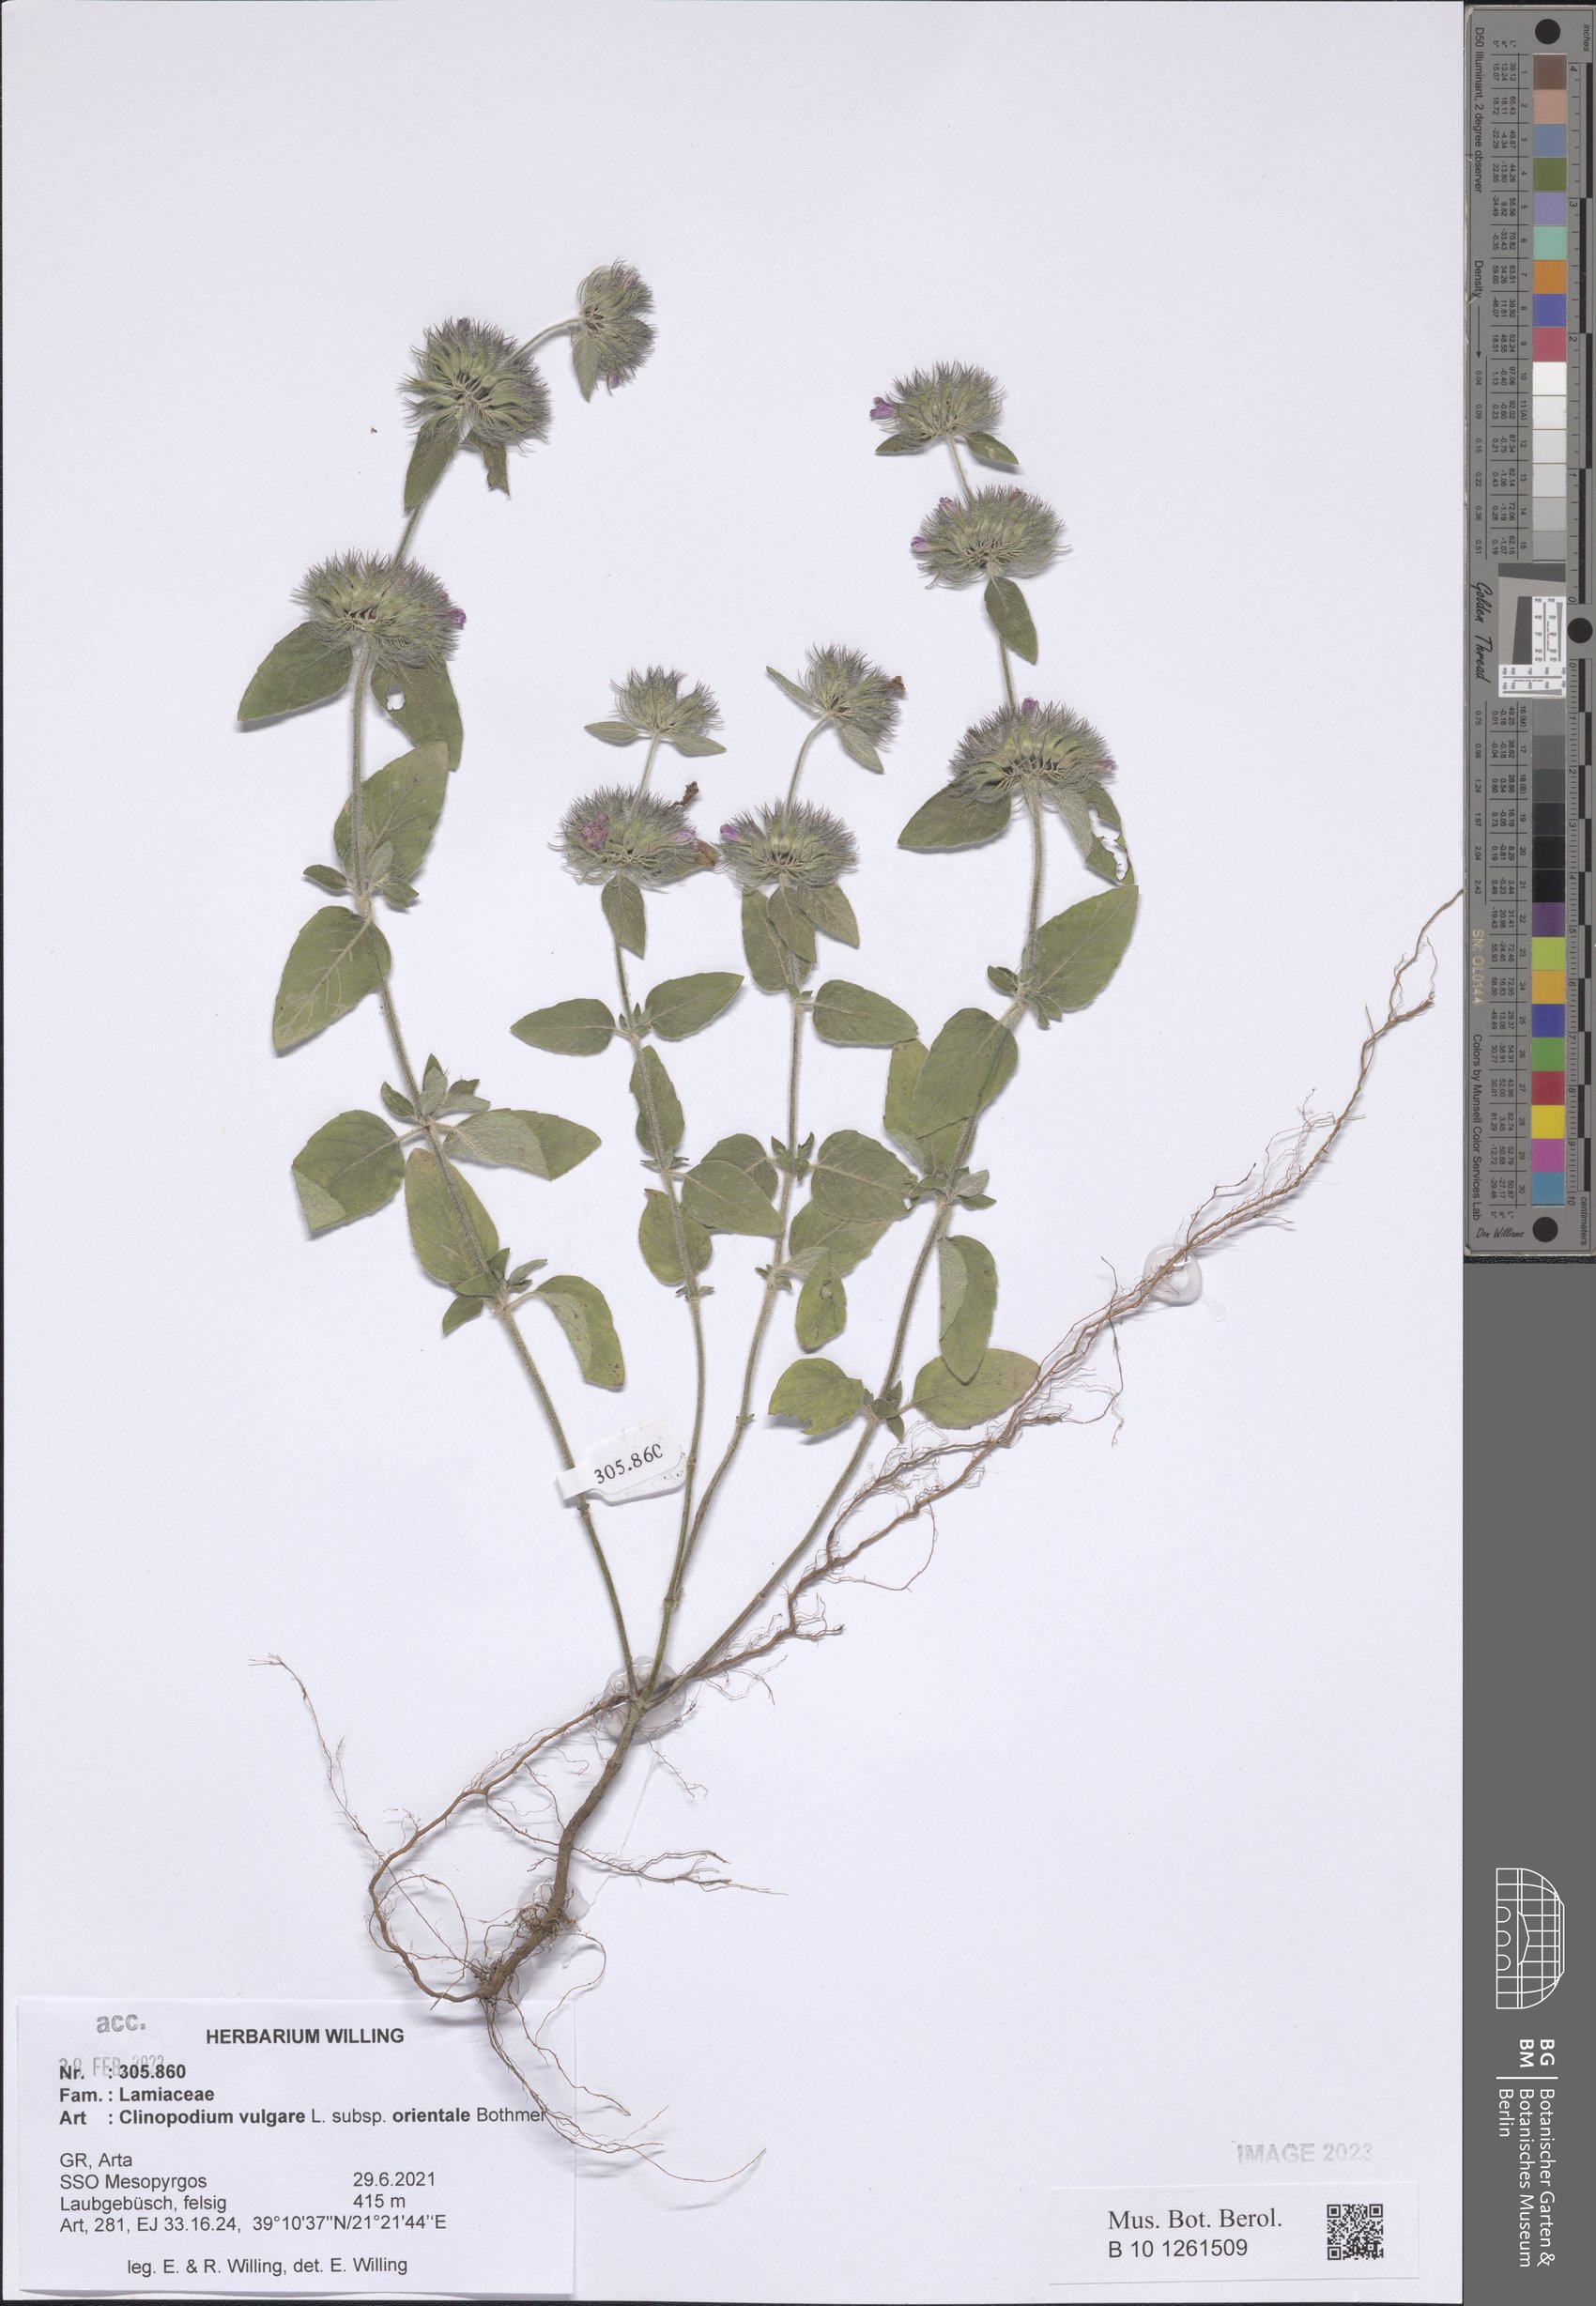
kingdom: Plantae
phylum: Tracheophyta
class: Magnoliopsida
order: Lamiales
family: Lamiaceae
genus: Clinopodium
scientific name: Clinopodium vulgare
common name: Wild basil
